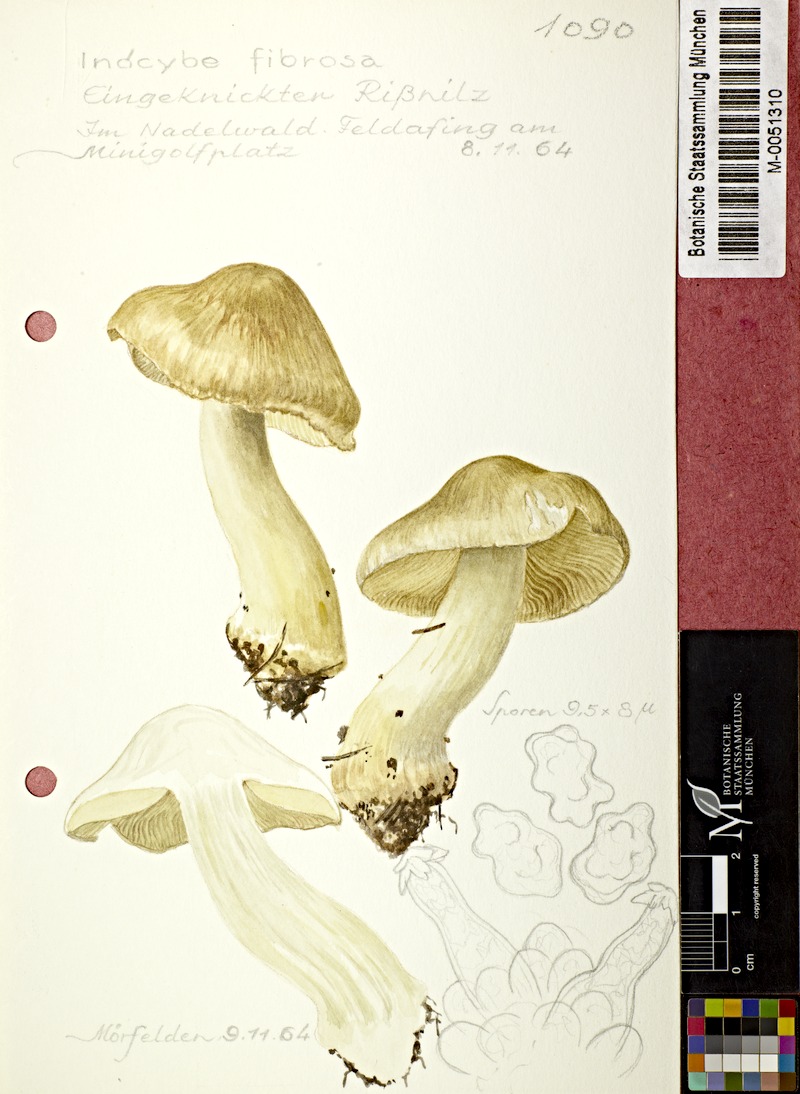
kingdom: Fungi
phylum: Basidiomycota
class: Agaricomycetes
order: Agaricales
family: Inocybaceae
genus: Inocybe
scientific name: Inocybe fibrosa
